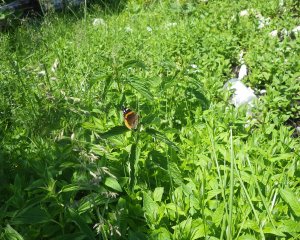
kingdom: Animalia
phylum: Arthropoda
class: Insecta
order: Lepidoptera
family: Nymphalidae
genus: Vanessa
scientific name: Vanessa atalanta
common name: Red Admiral
